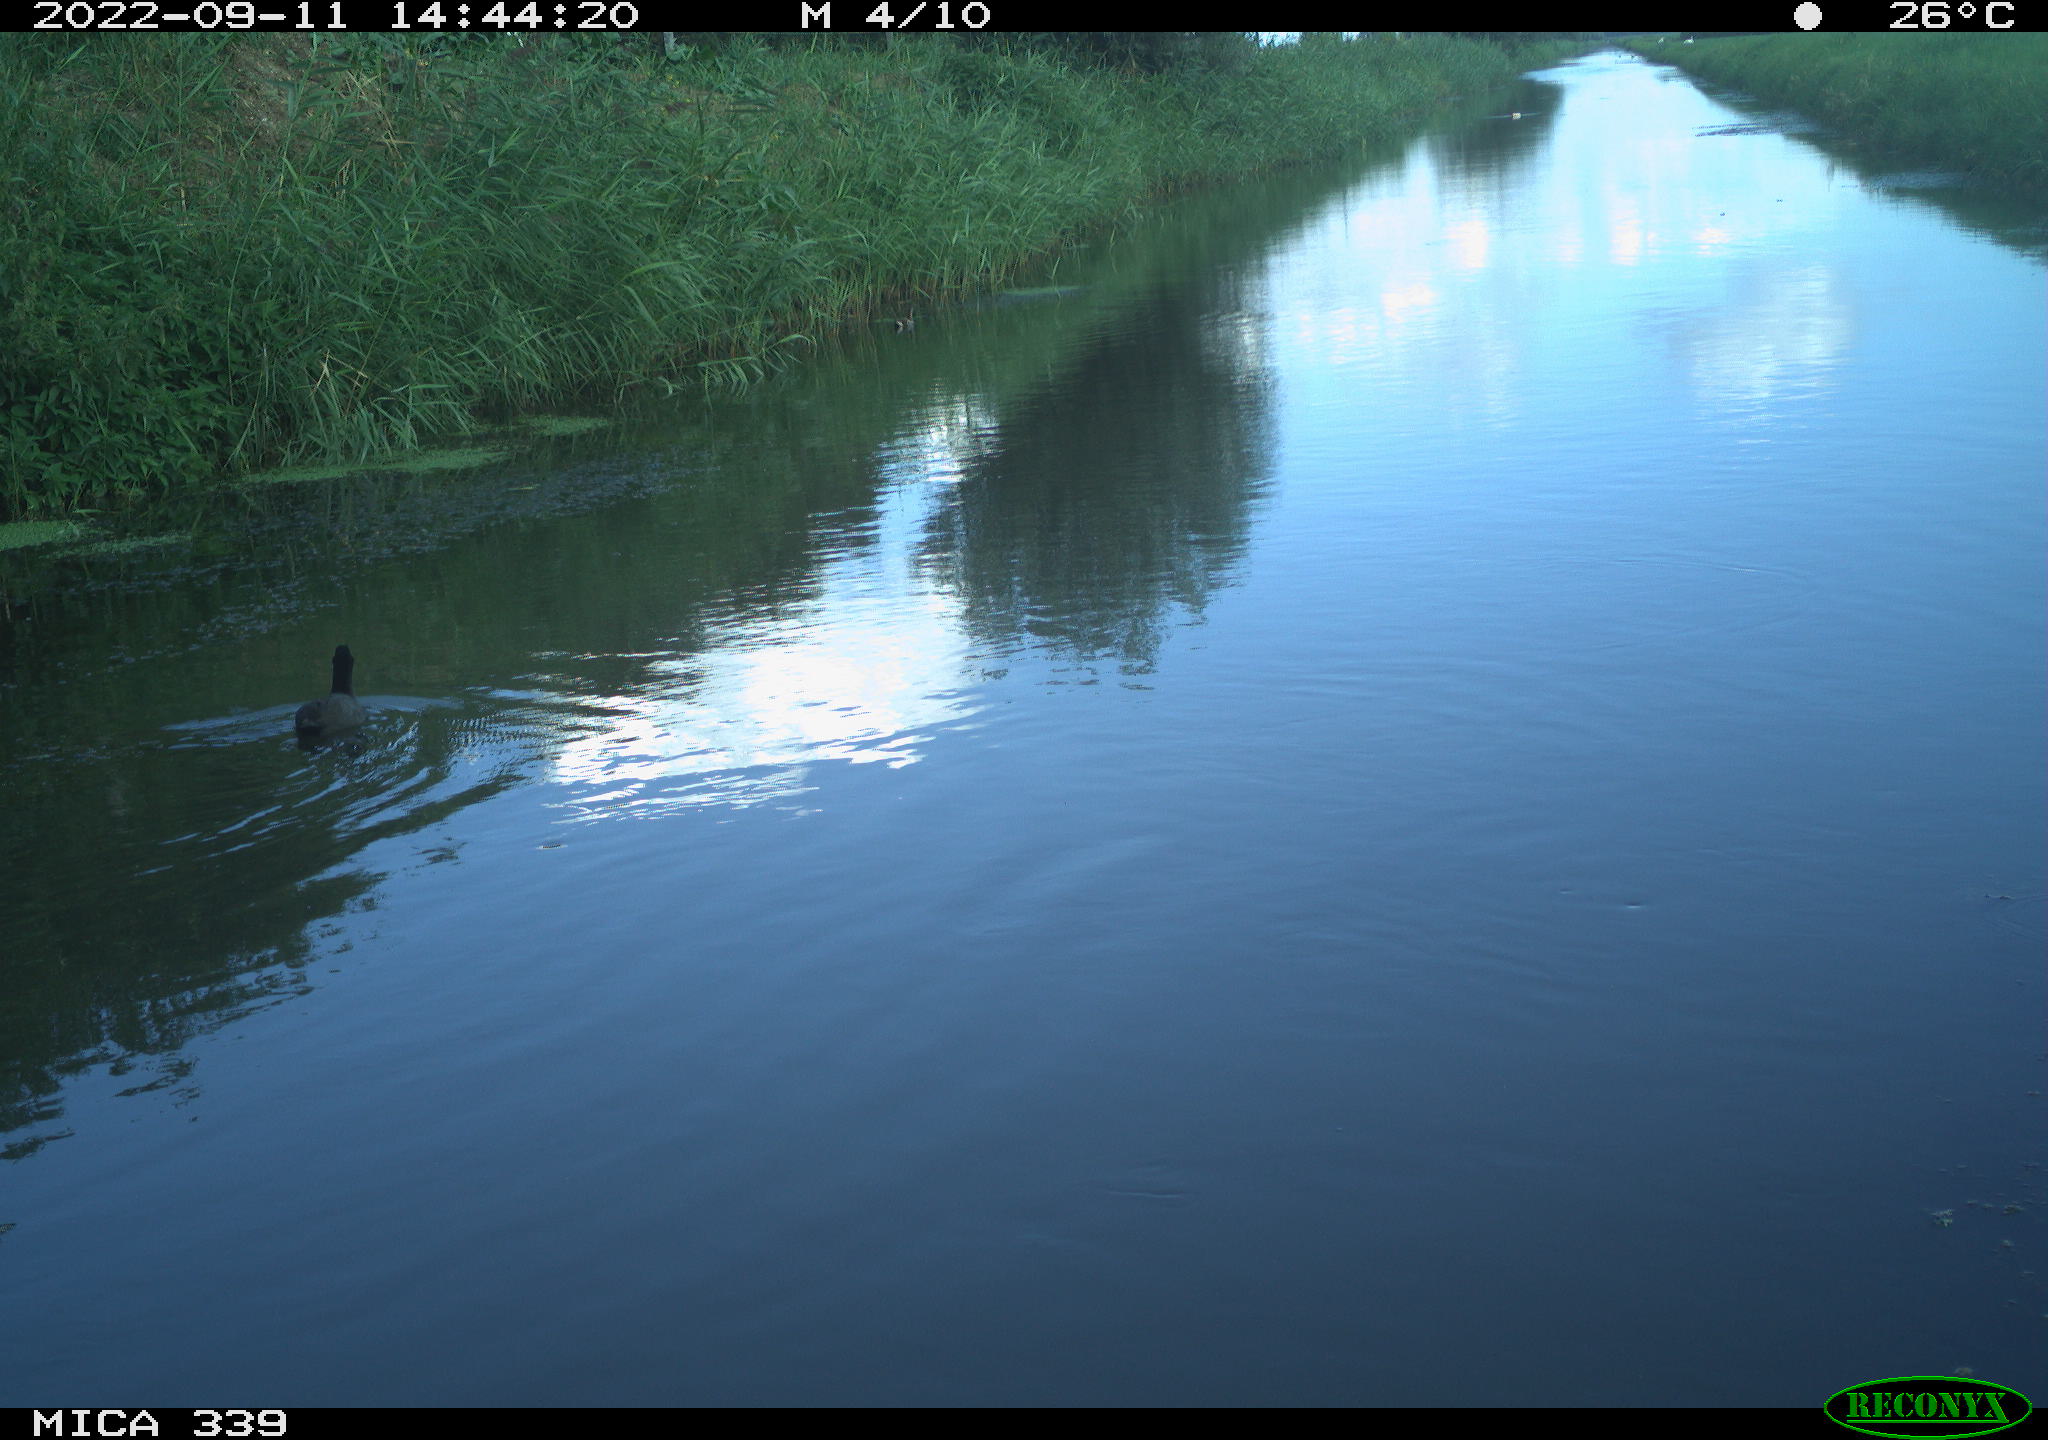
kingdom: Animalia
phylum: Chordata
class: Aves
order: Gruiformes
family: Rallidae
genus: Fulica
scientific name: Fulica atra
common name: Eurasian coot
